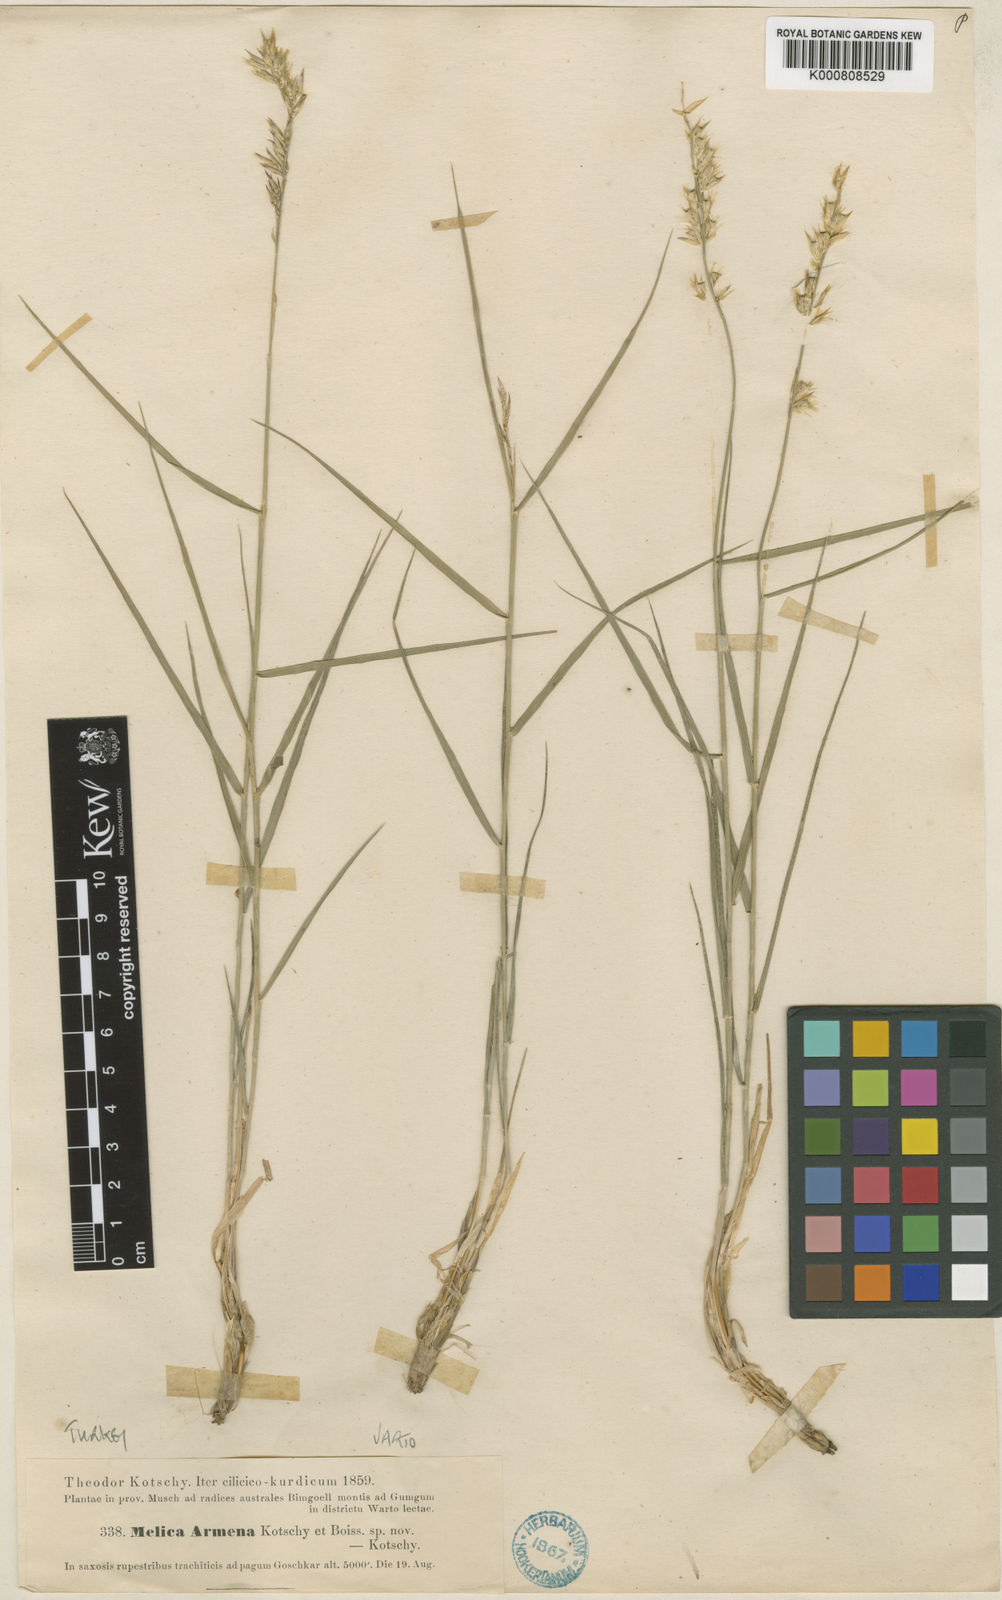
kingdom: Plantae
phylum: Tracheophyta
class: Liliopsida
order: Poales
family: Poaceae
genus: Melica
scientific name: Melica persica
